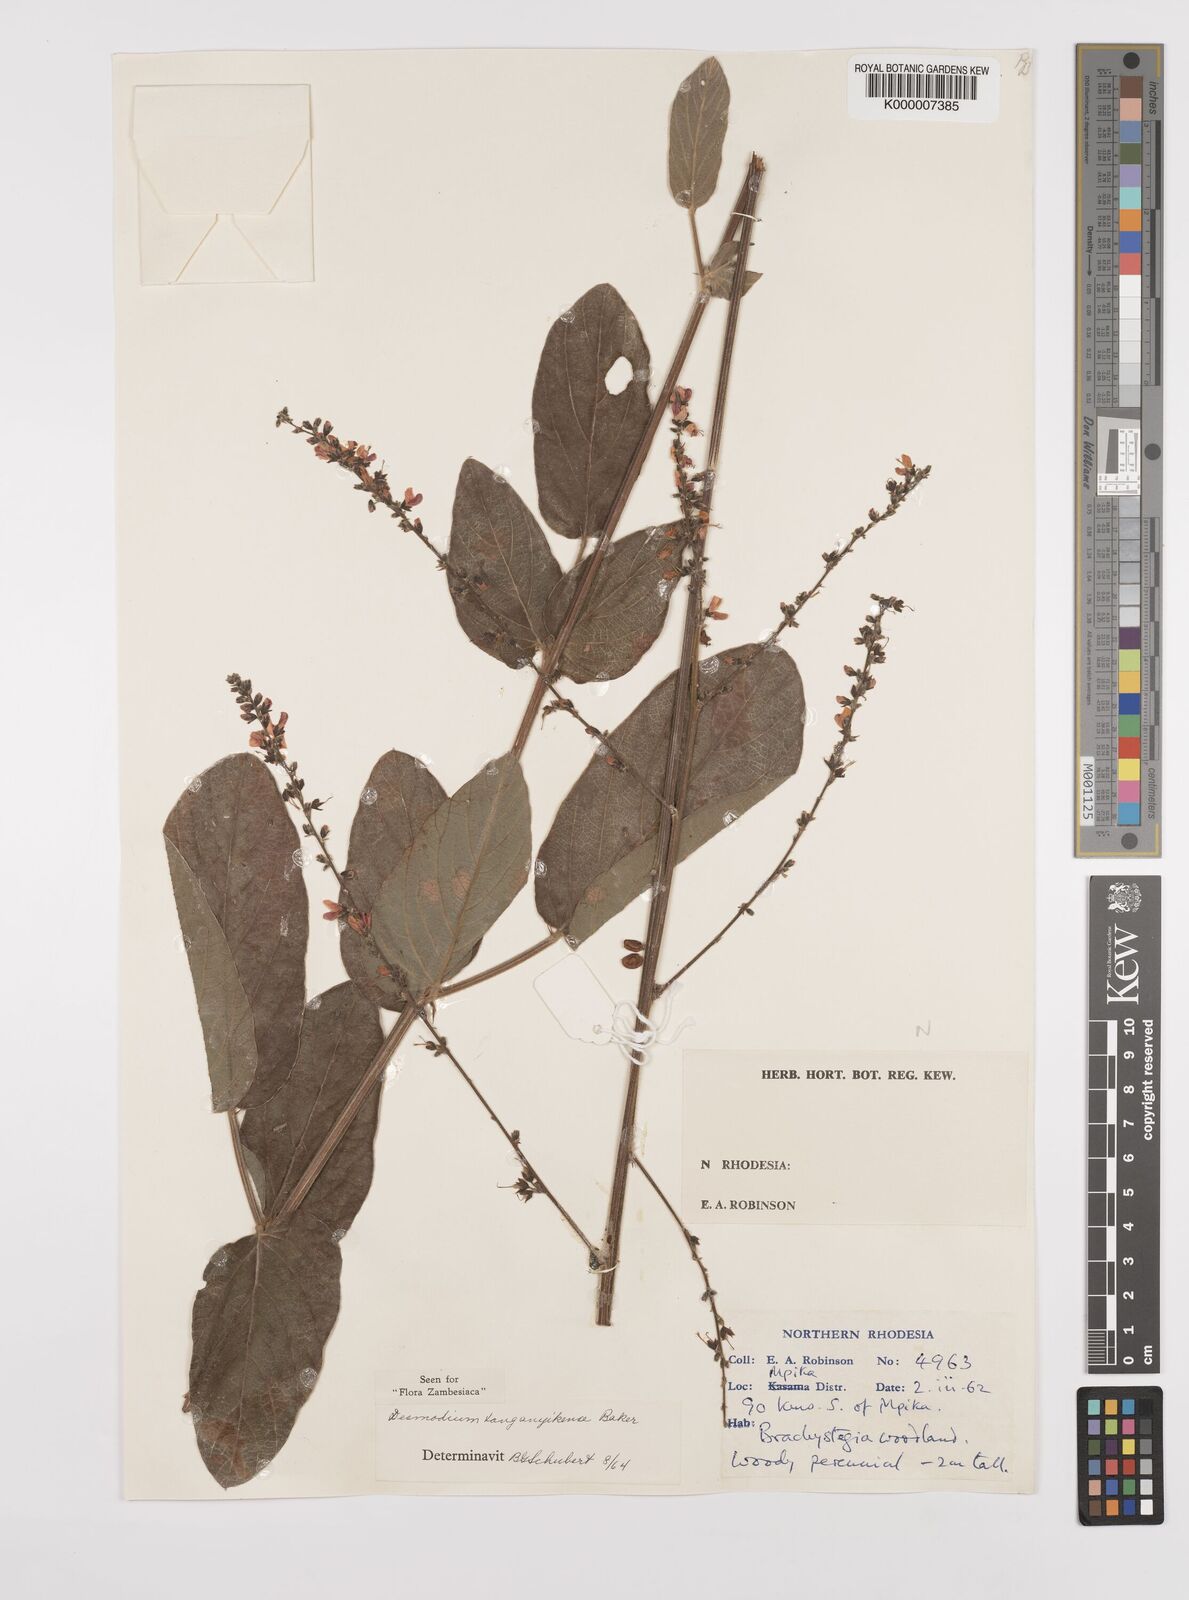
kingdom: Plantae
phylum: Tracheophyta
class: Magnoliopsida
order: Fabales
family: Fabaceae
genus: Pleurolobus
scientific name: Pleurolobus tanganyikensis
